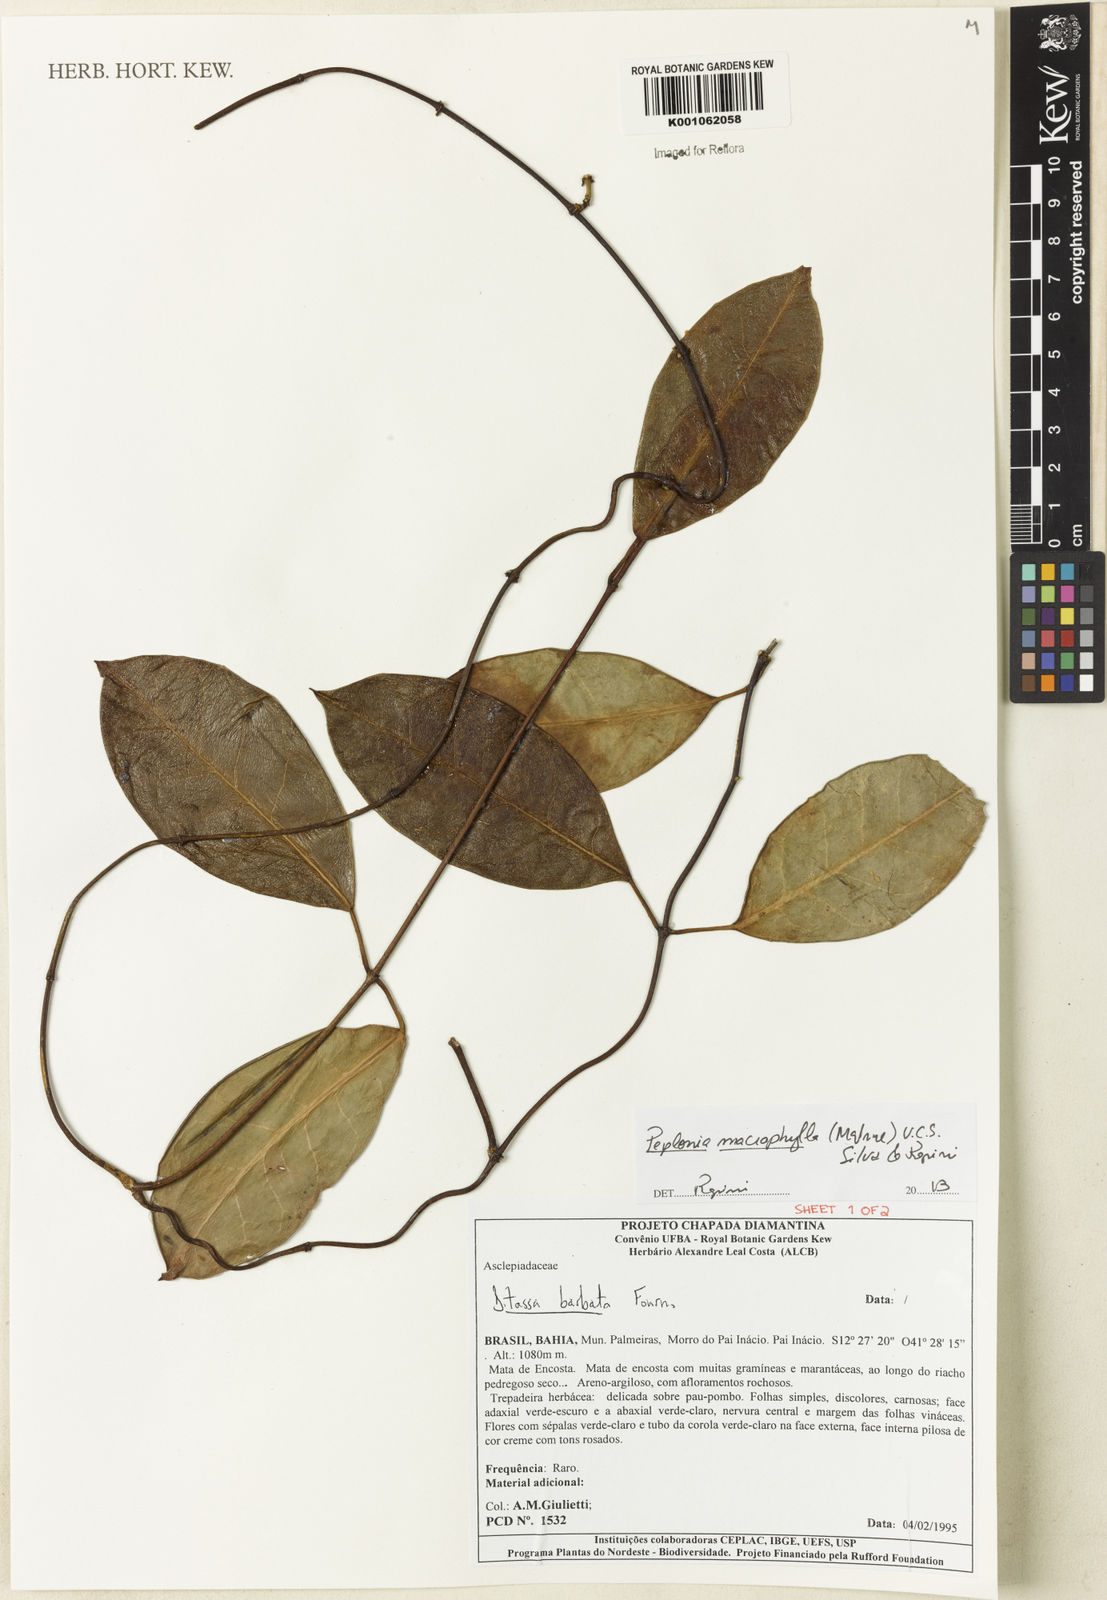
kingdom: Plantae
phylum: Tracheophyta
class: Magnoliopsida
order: Gentianales
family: Apocynaceae
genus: Peplonia
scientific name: Peplonia macrophylla
